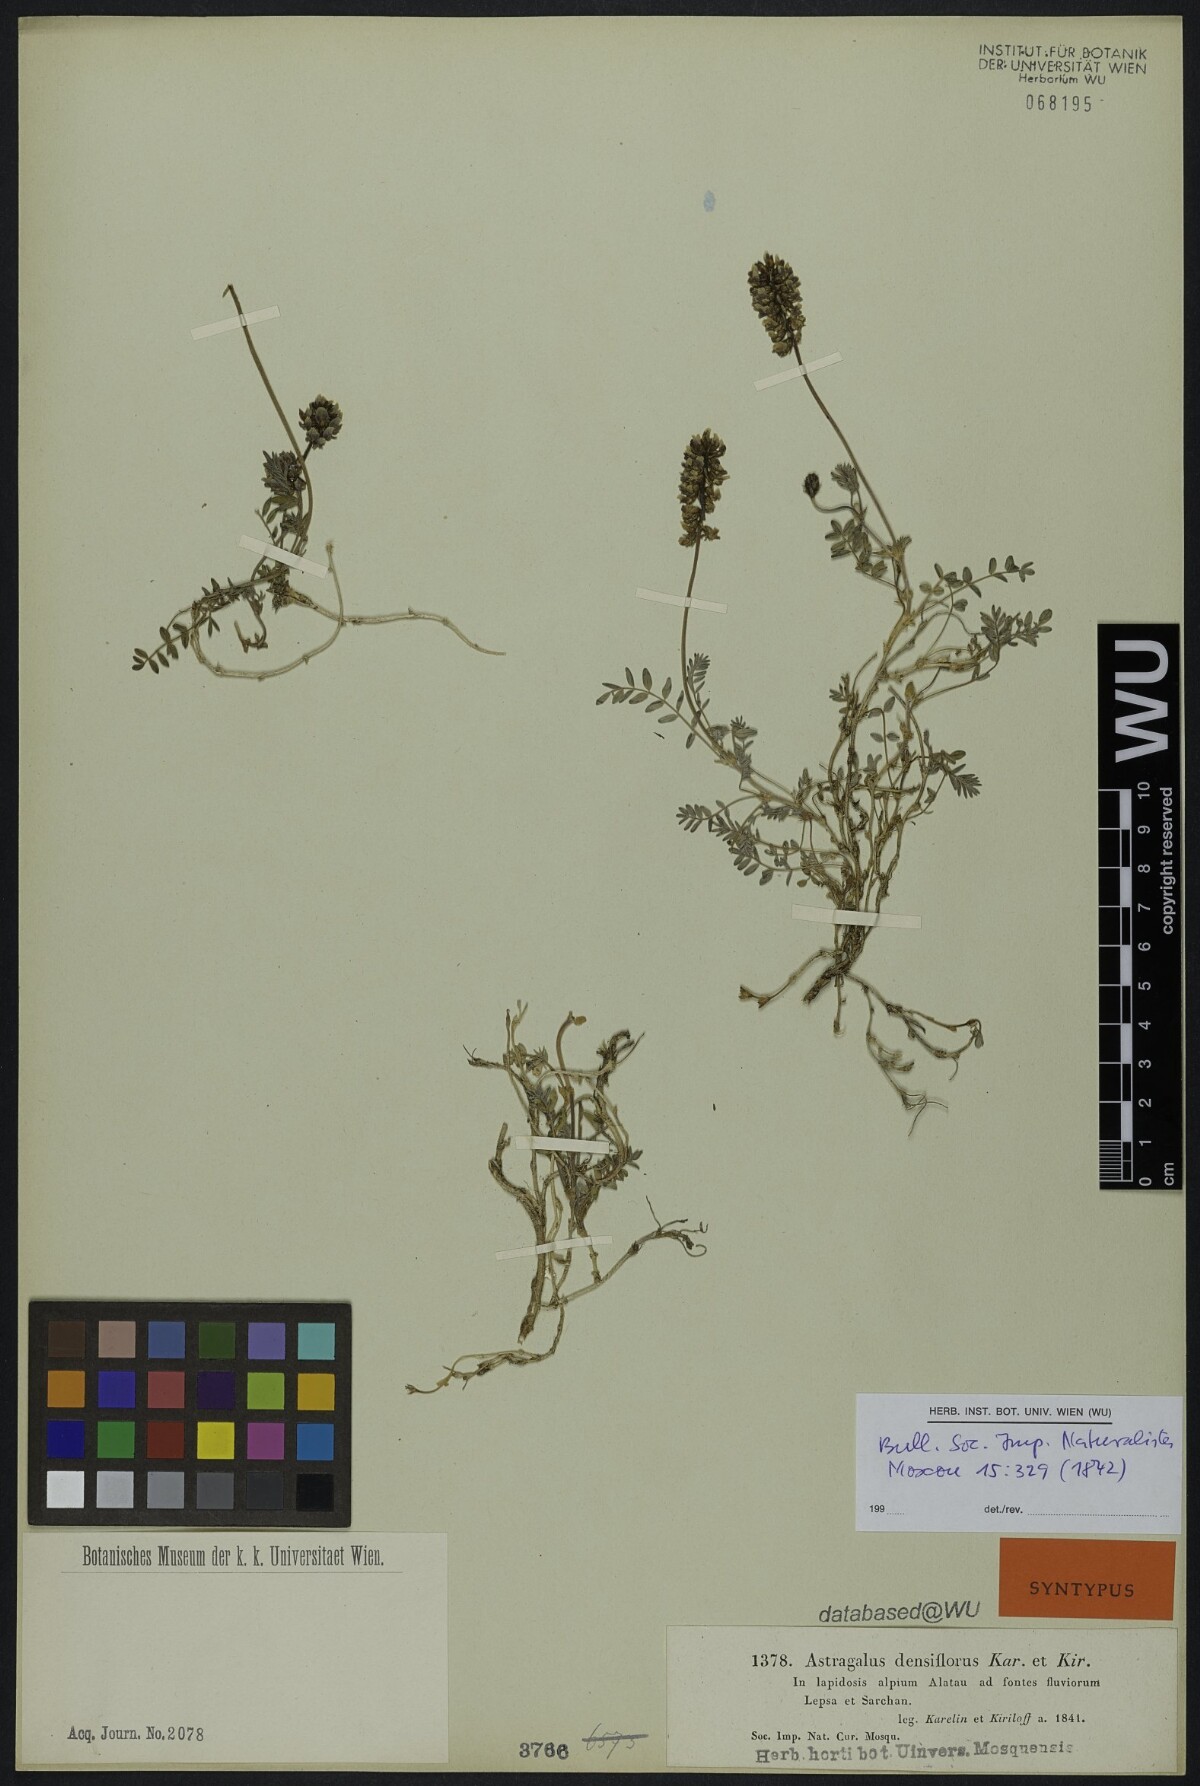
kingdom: Plantae
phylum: Tracheophyta
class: Magnoliopsida
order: Fabales
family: Fabaceae
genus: Astragalus
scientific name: Astragalus densiflorus
